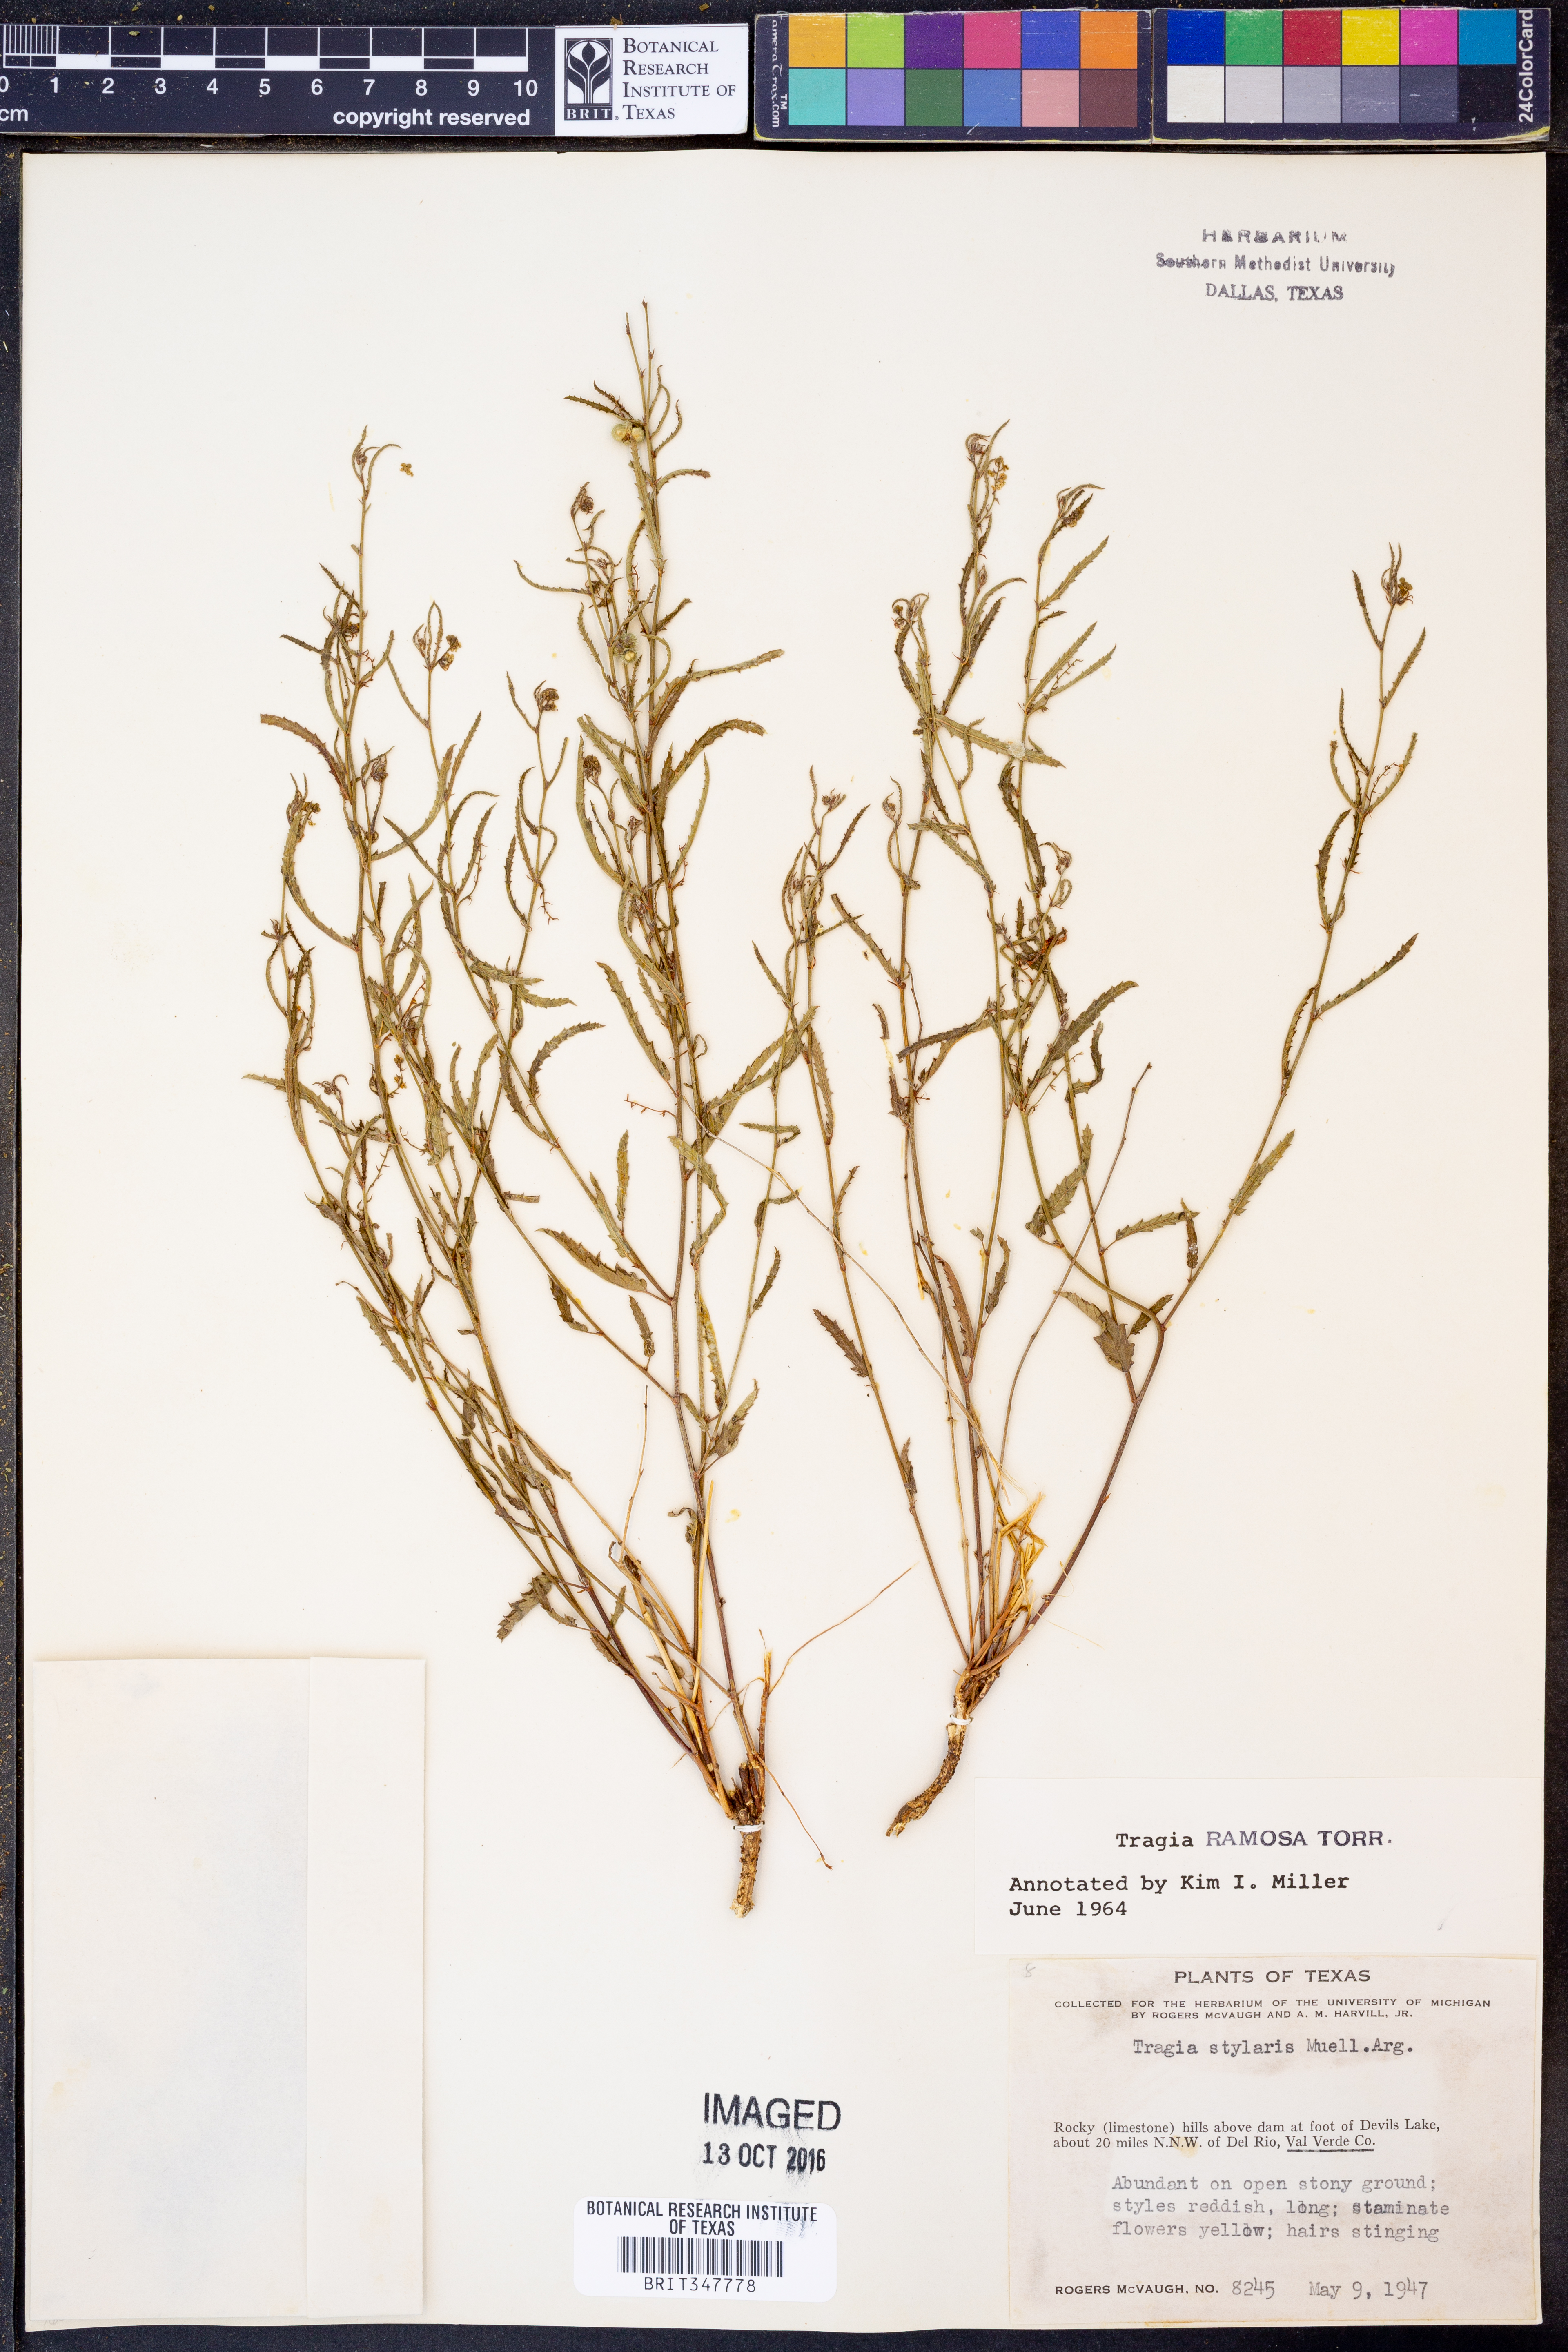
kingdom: Plantae
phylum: Tracheophyta
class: Magnoliopsida
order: Malpighiales
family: Euphorbiaceae
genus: Tragia
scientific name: Tragia ramosa
